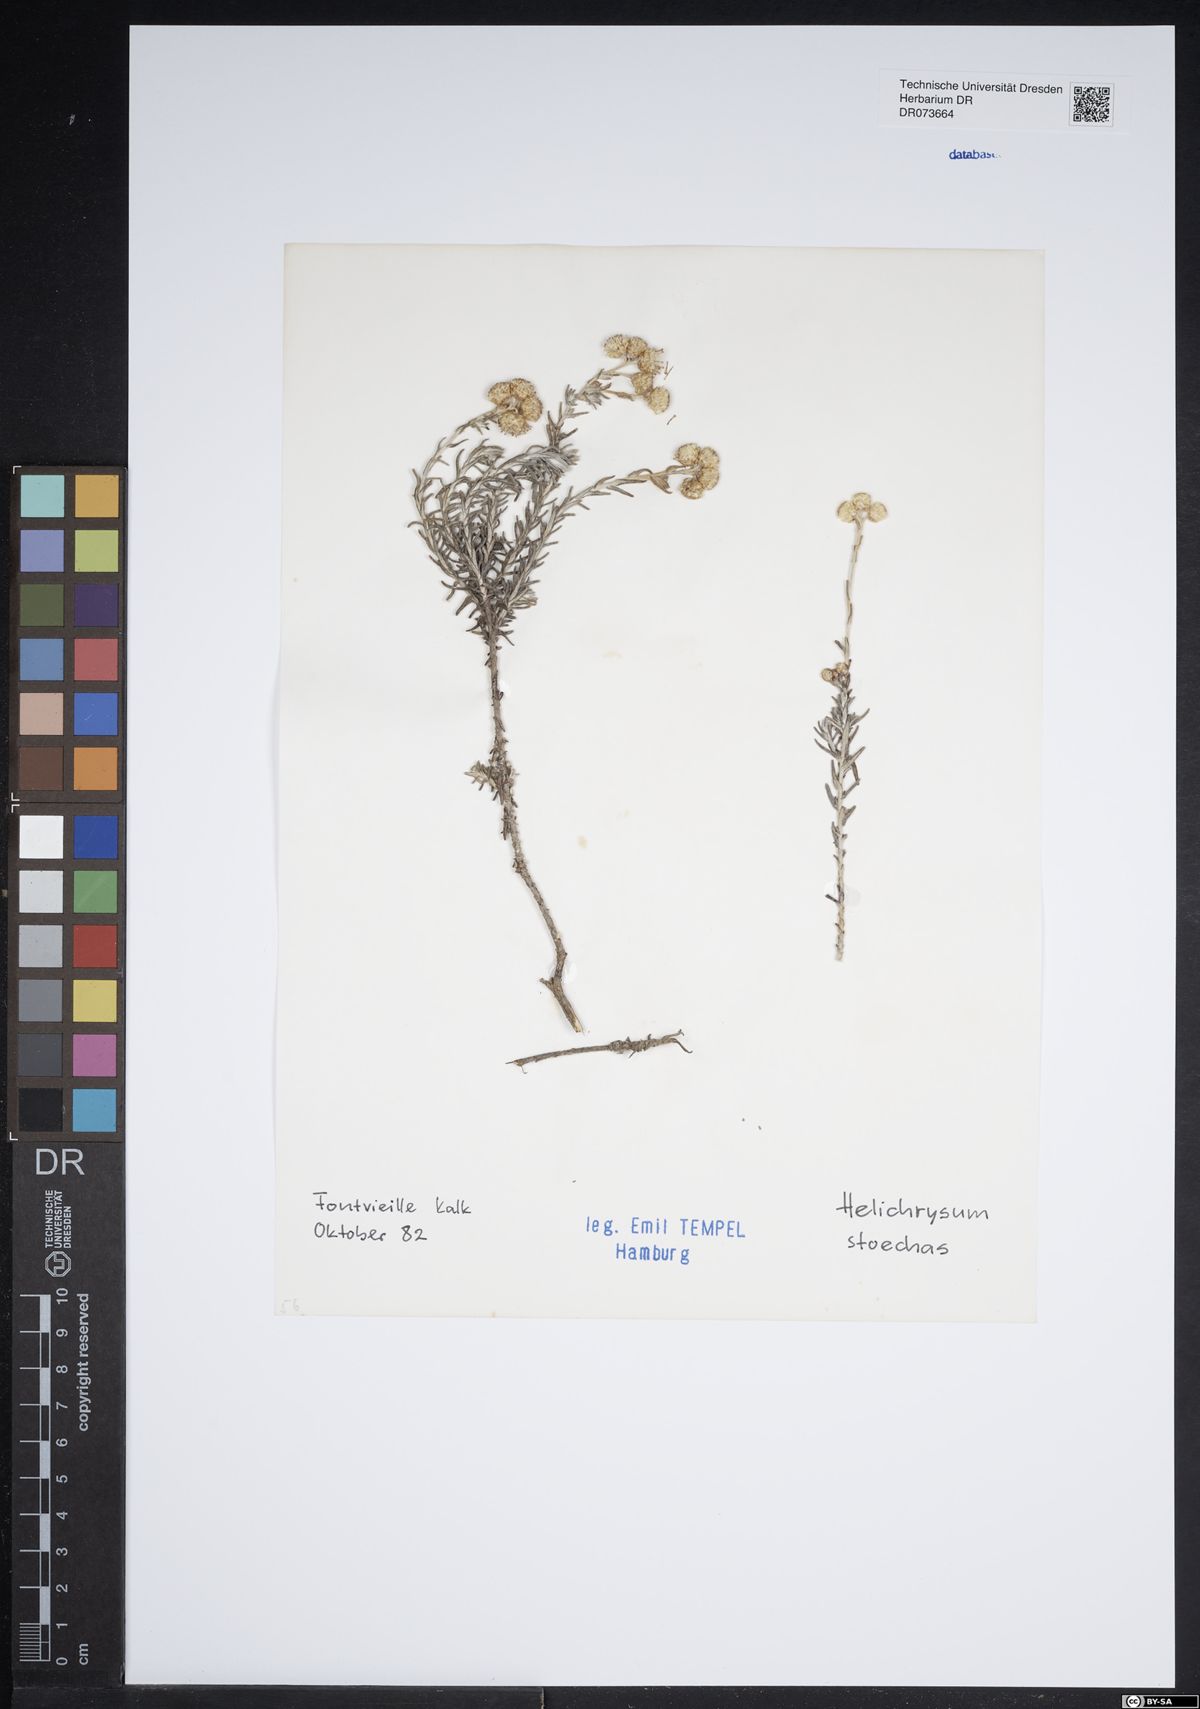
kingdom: Plantae
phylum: Tracheophyta
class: Magnoliopsida
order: Asterales
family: Asteraceae
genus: Helichrysum
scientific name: Helichrysum stoechas
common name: Goldilocks
